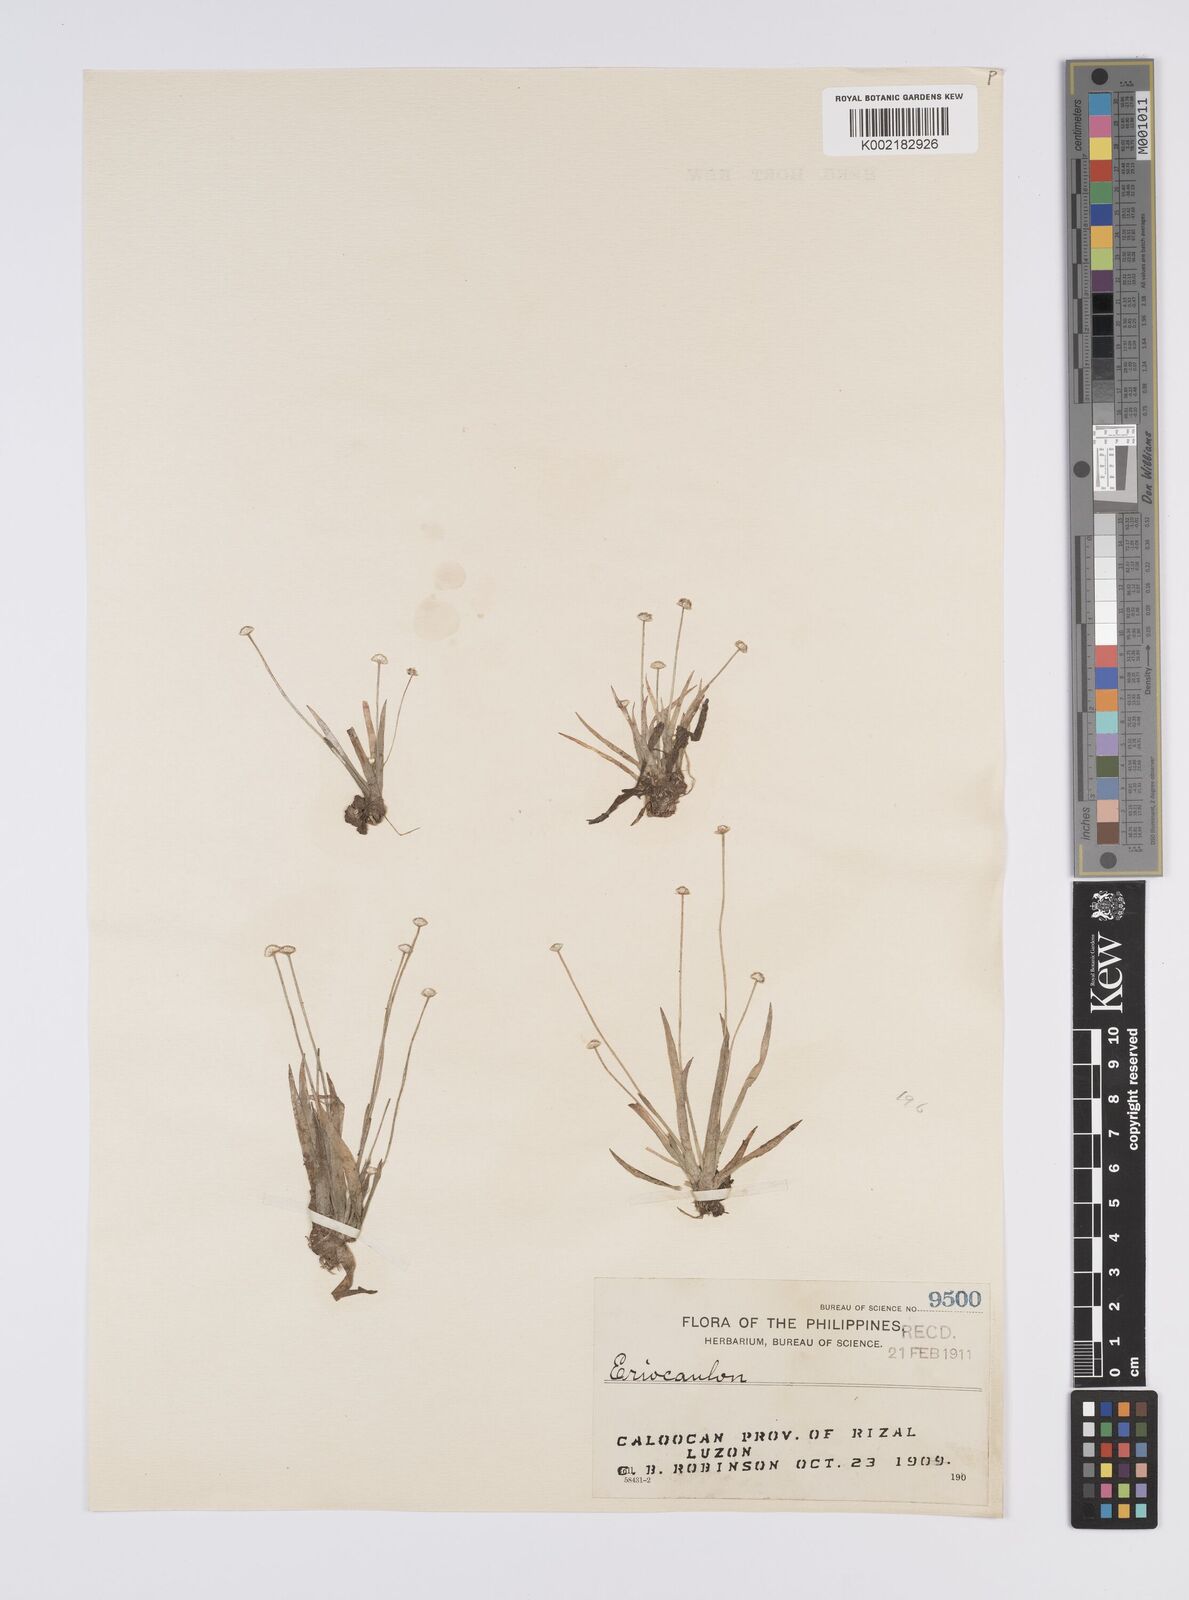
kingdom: Plantae
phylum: Tracheophyta
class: Liliopsida
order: Poales
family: Eriocaulaceae
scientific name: Eriocaulaceae
